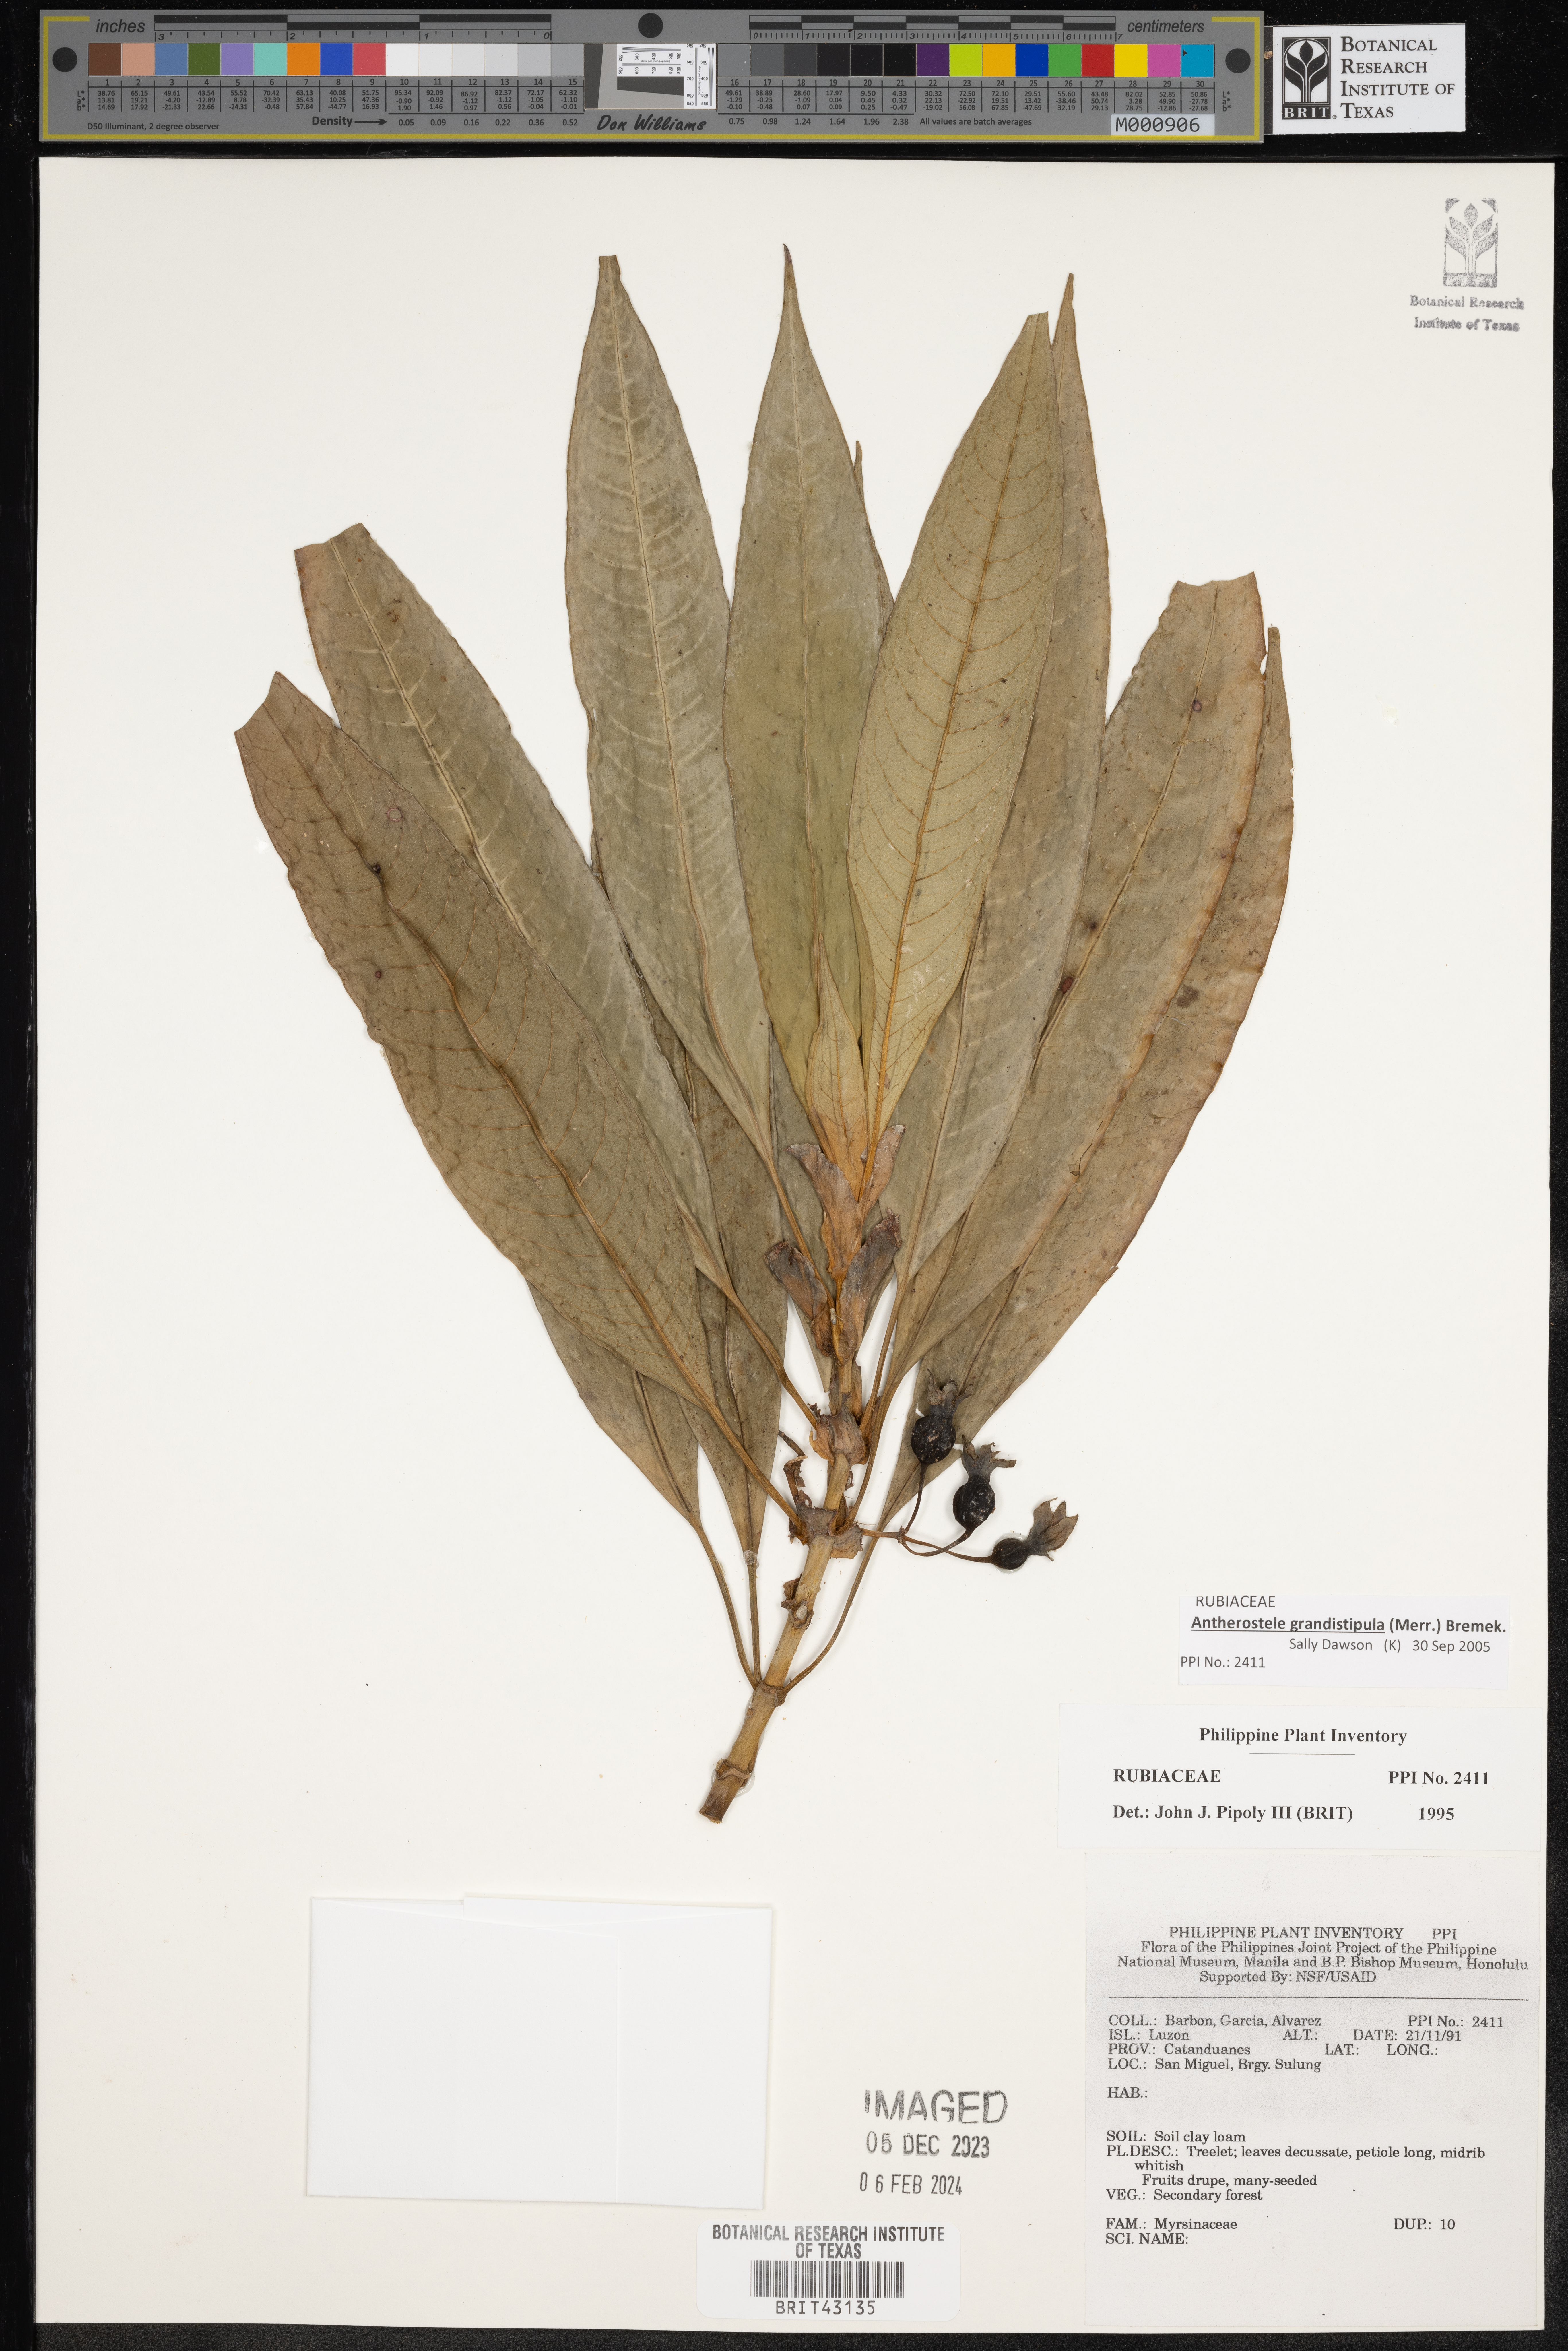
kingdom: Plantae
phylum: Tracheophyta
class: Magnoliopsida
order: Gentianales
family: Rubiaceae
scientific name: Rubiaceae
